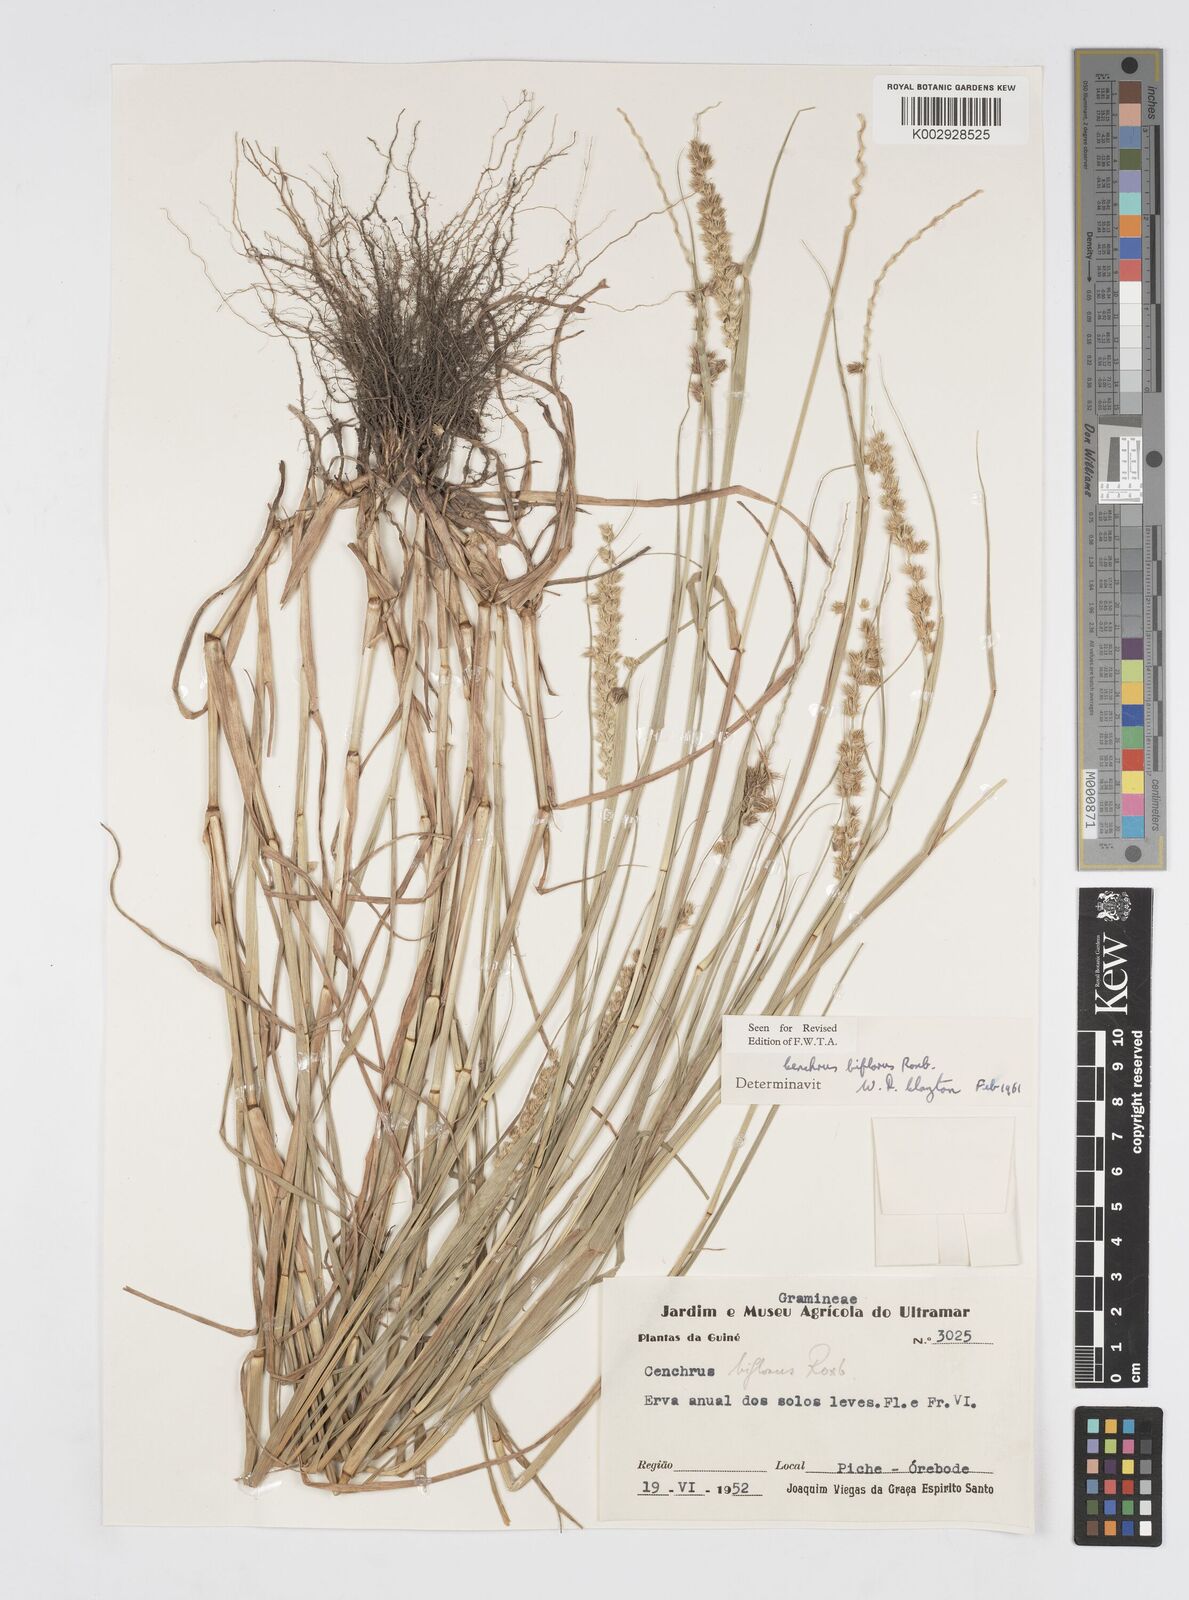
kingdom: Plantae
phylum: Tracheophyta
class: Liliopsida
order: Poales
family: Poaceae
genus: Cenchrus
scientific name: Cenchrus biflorus
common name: Indian sandbur
